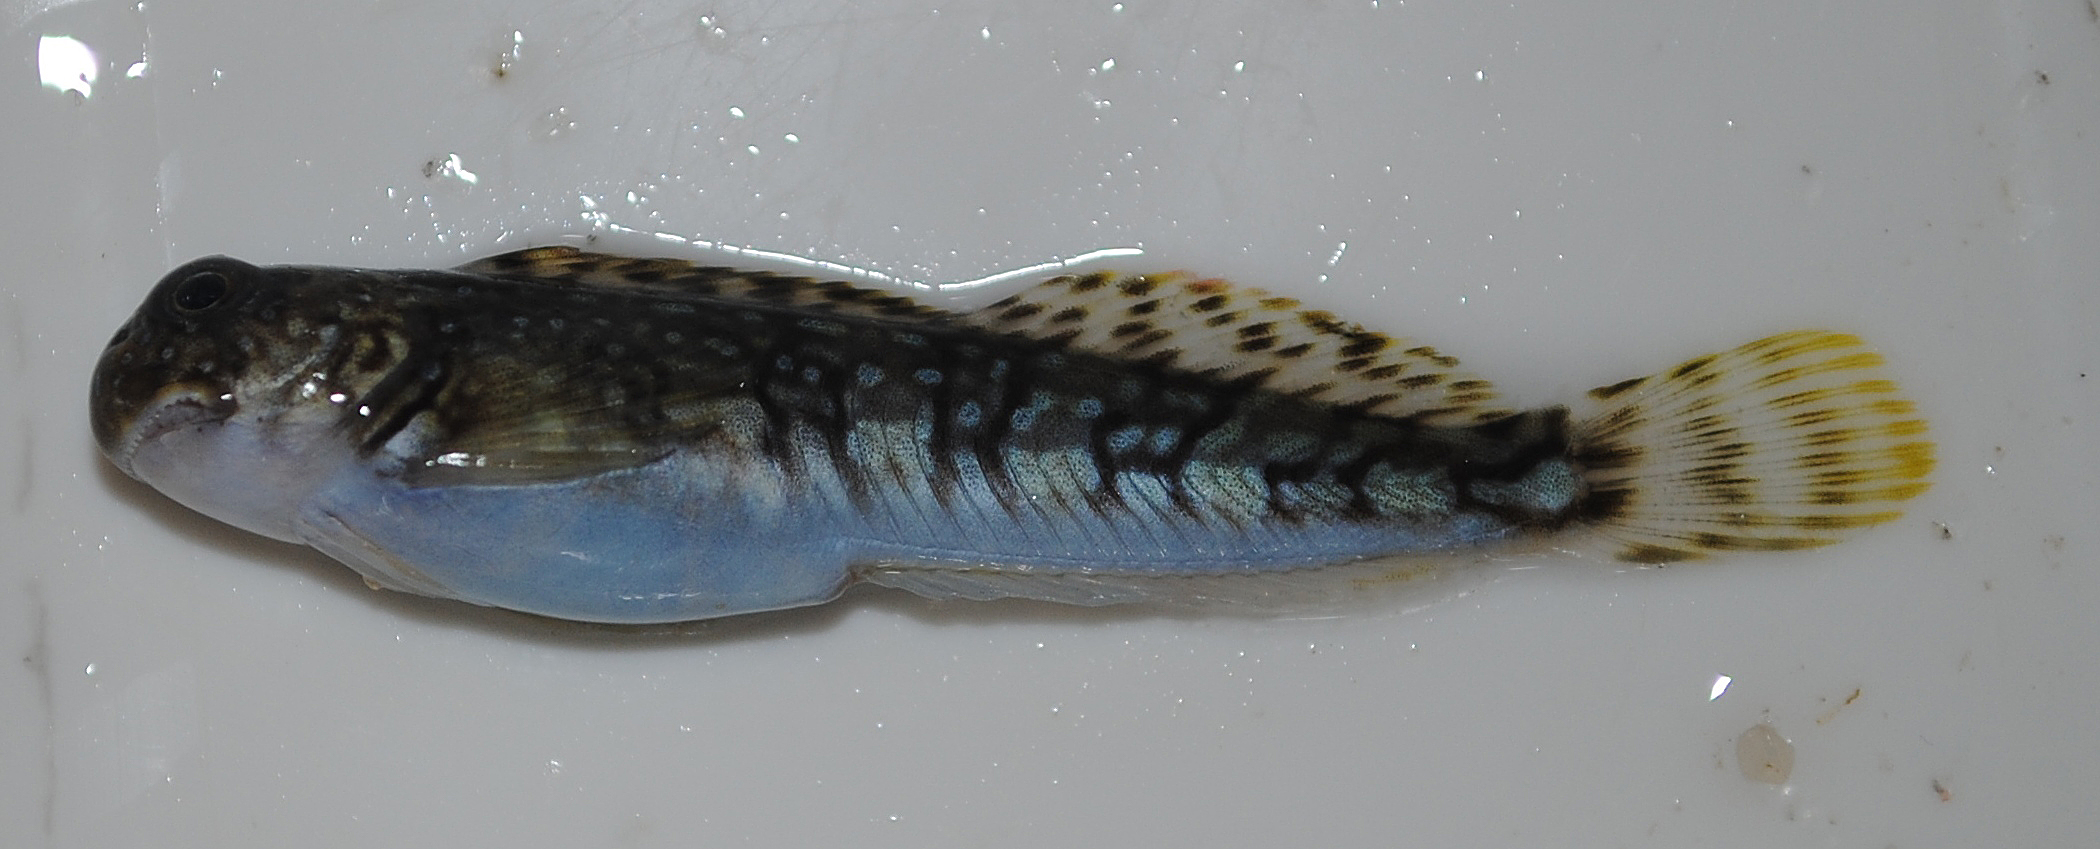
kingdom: Animalia
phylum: Chordata
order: Perciformes
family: Blenniidae
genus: Istiblennius
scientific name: Istiblennius spilotus
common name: Spotted rockskipper
